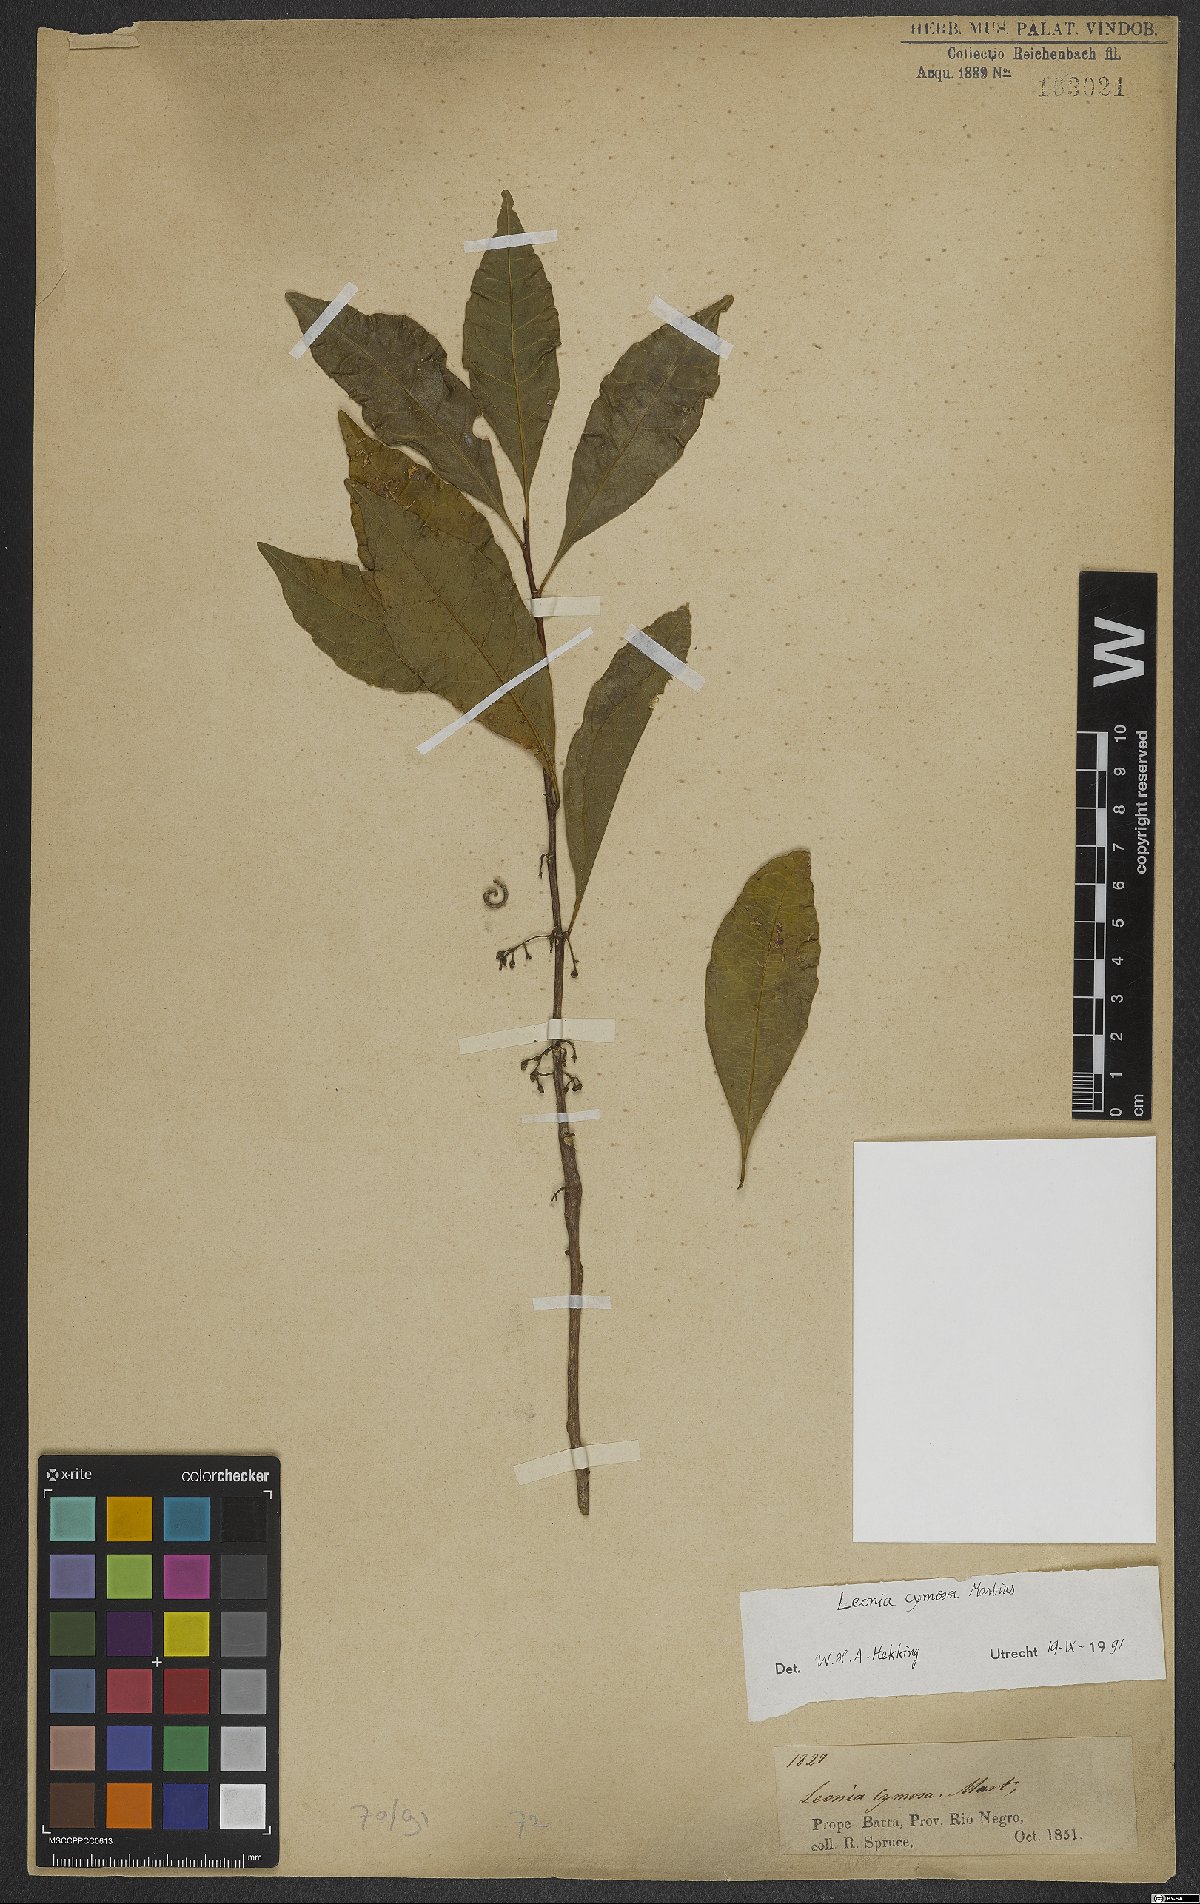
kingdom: Plantae
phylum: Tracheophyta
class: Magnoliopsida
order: Malpighiales
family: Violaceae
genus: Leonia
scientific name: Leonia cymosa
